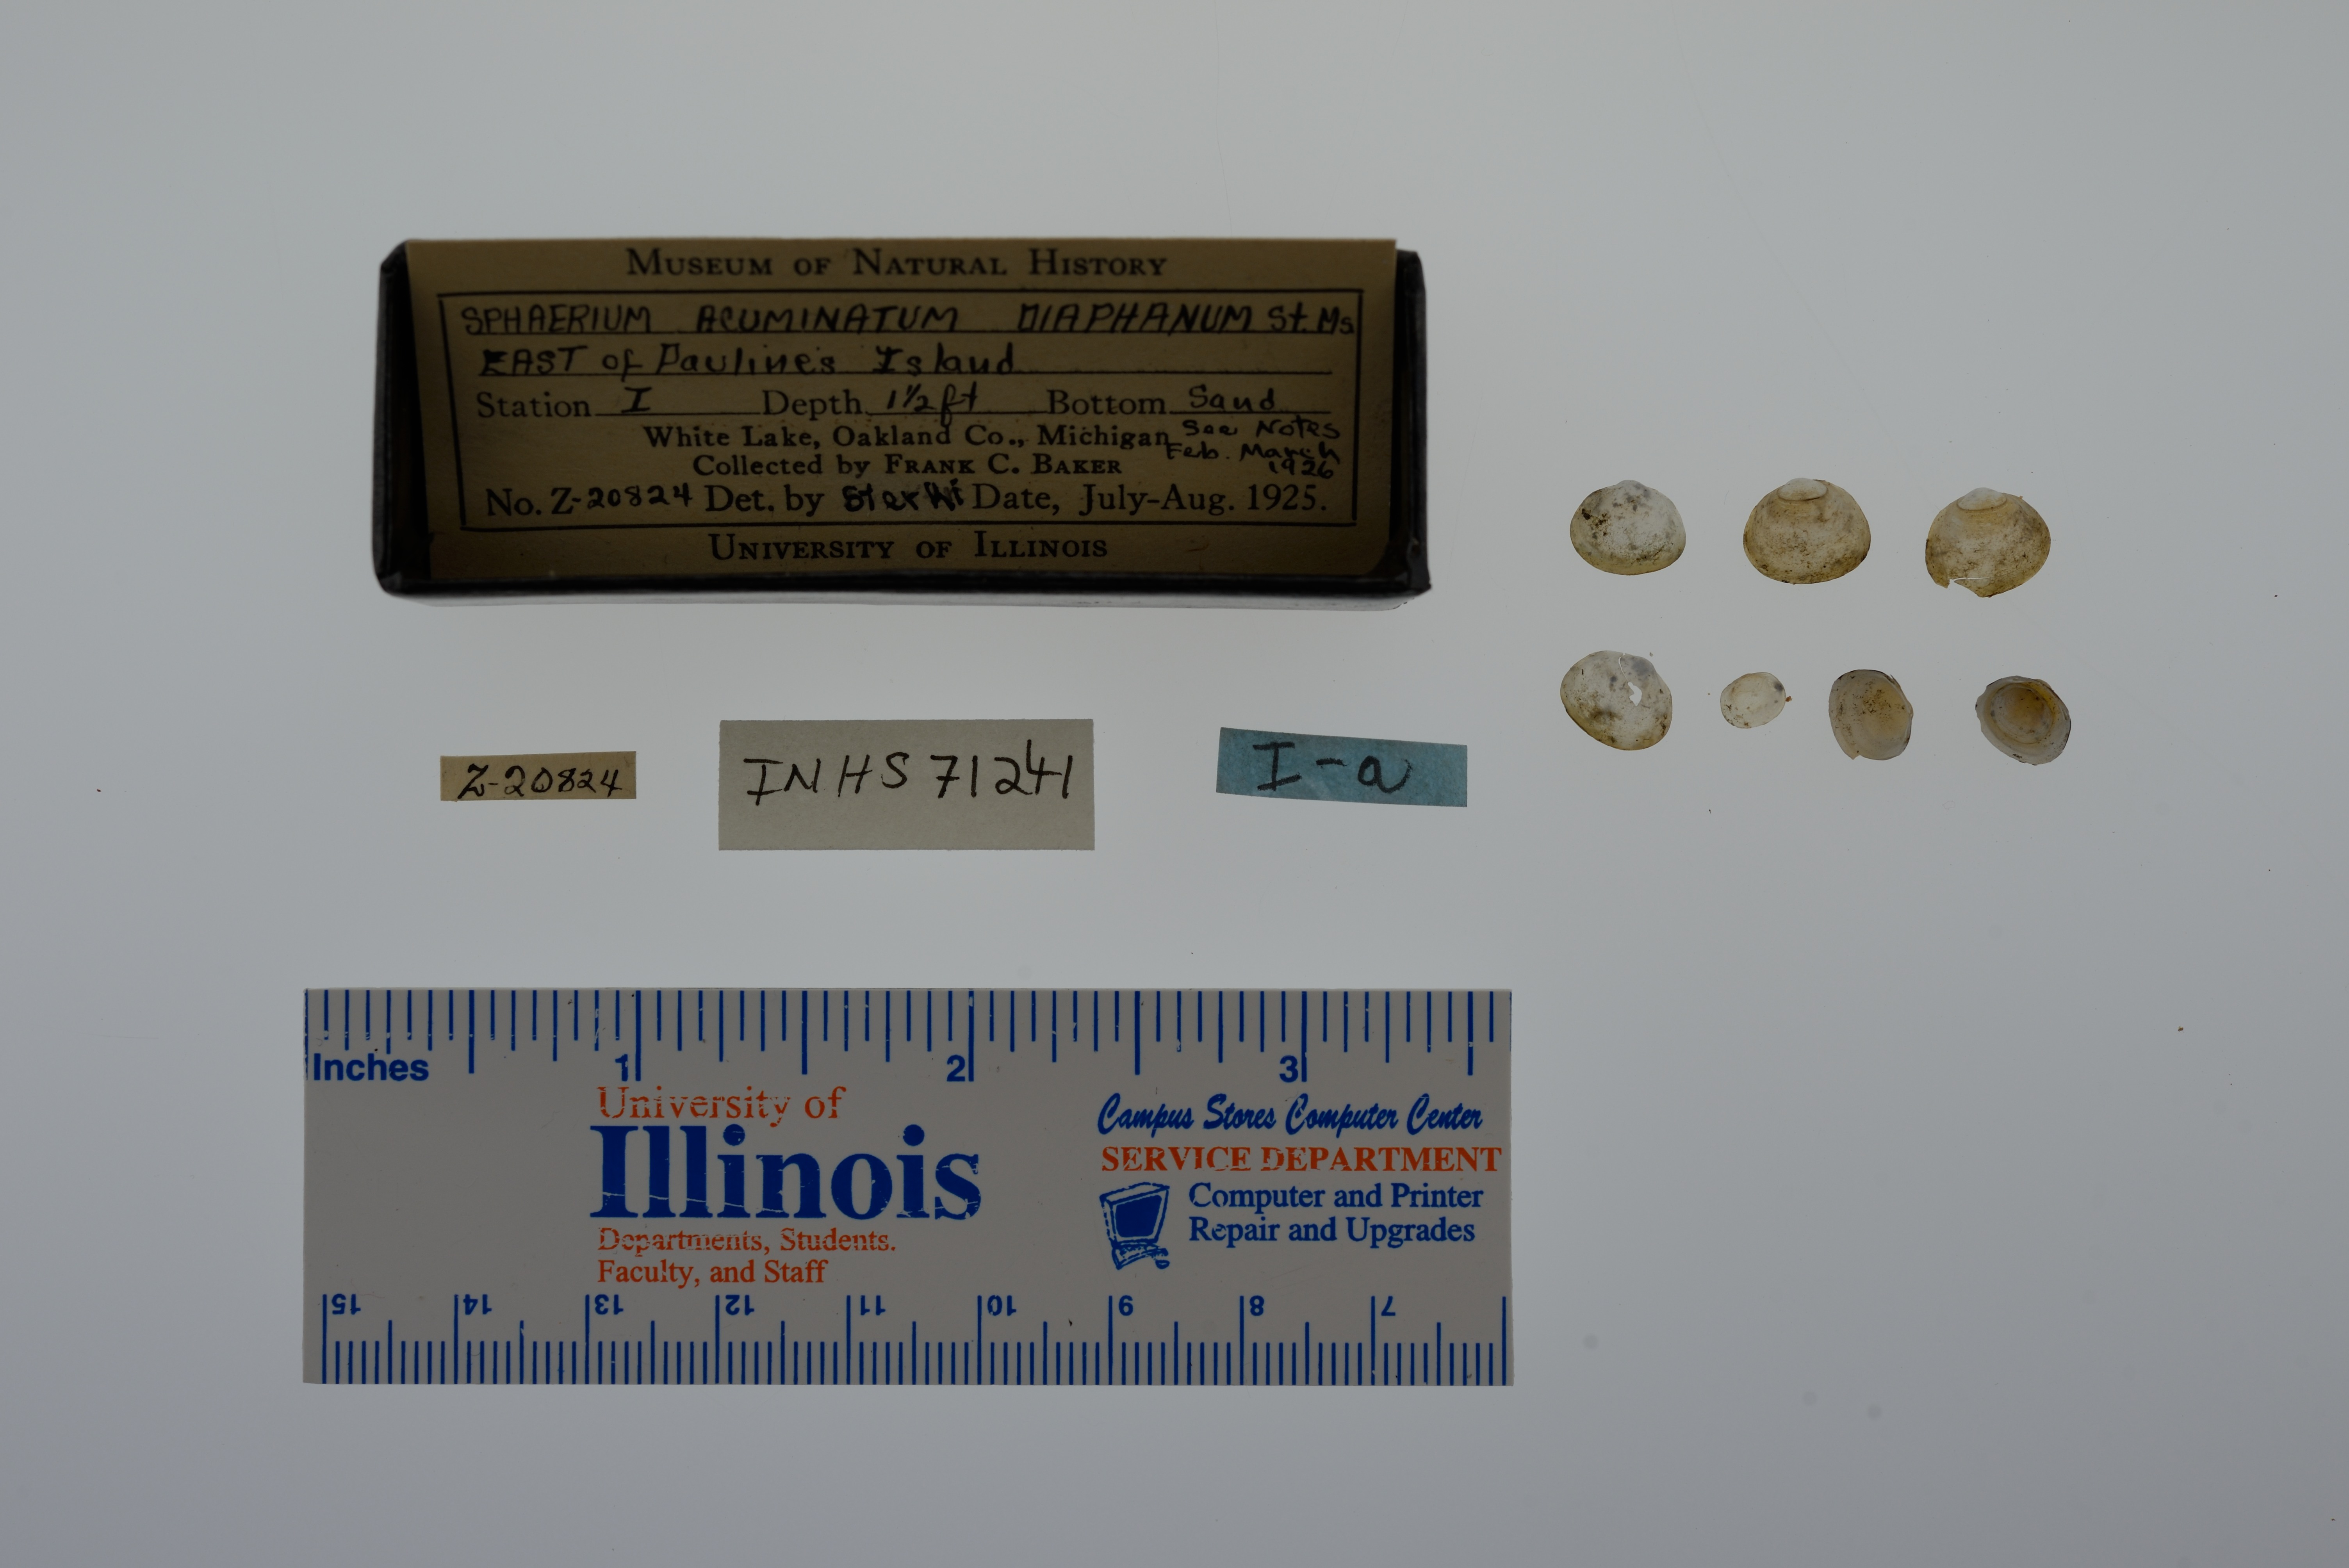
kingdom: Animalia
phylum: Mollusca
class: Bivalvia
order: Sphaeriida
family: Sphaeriidae
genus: Sphaerium
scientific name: Sphaerium striatinum
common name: Striated fingernailclam
